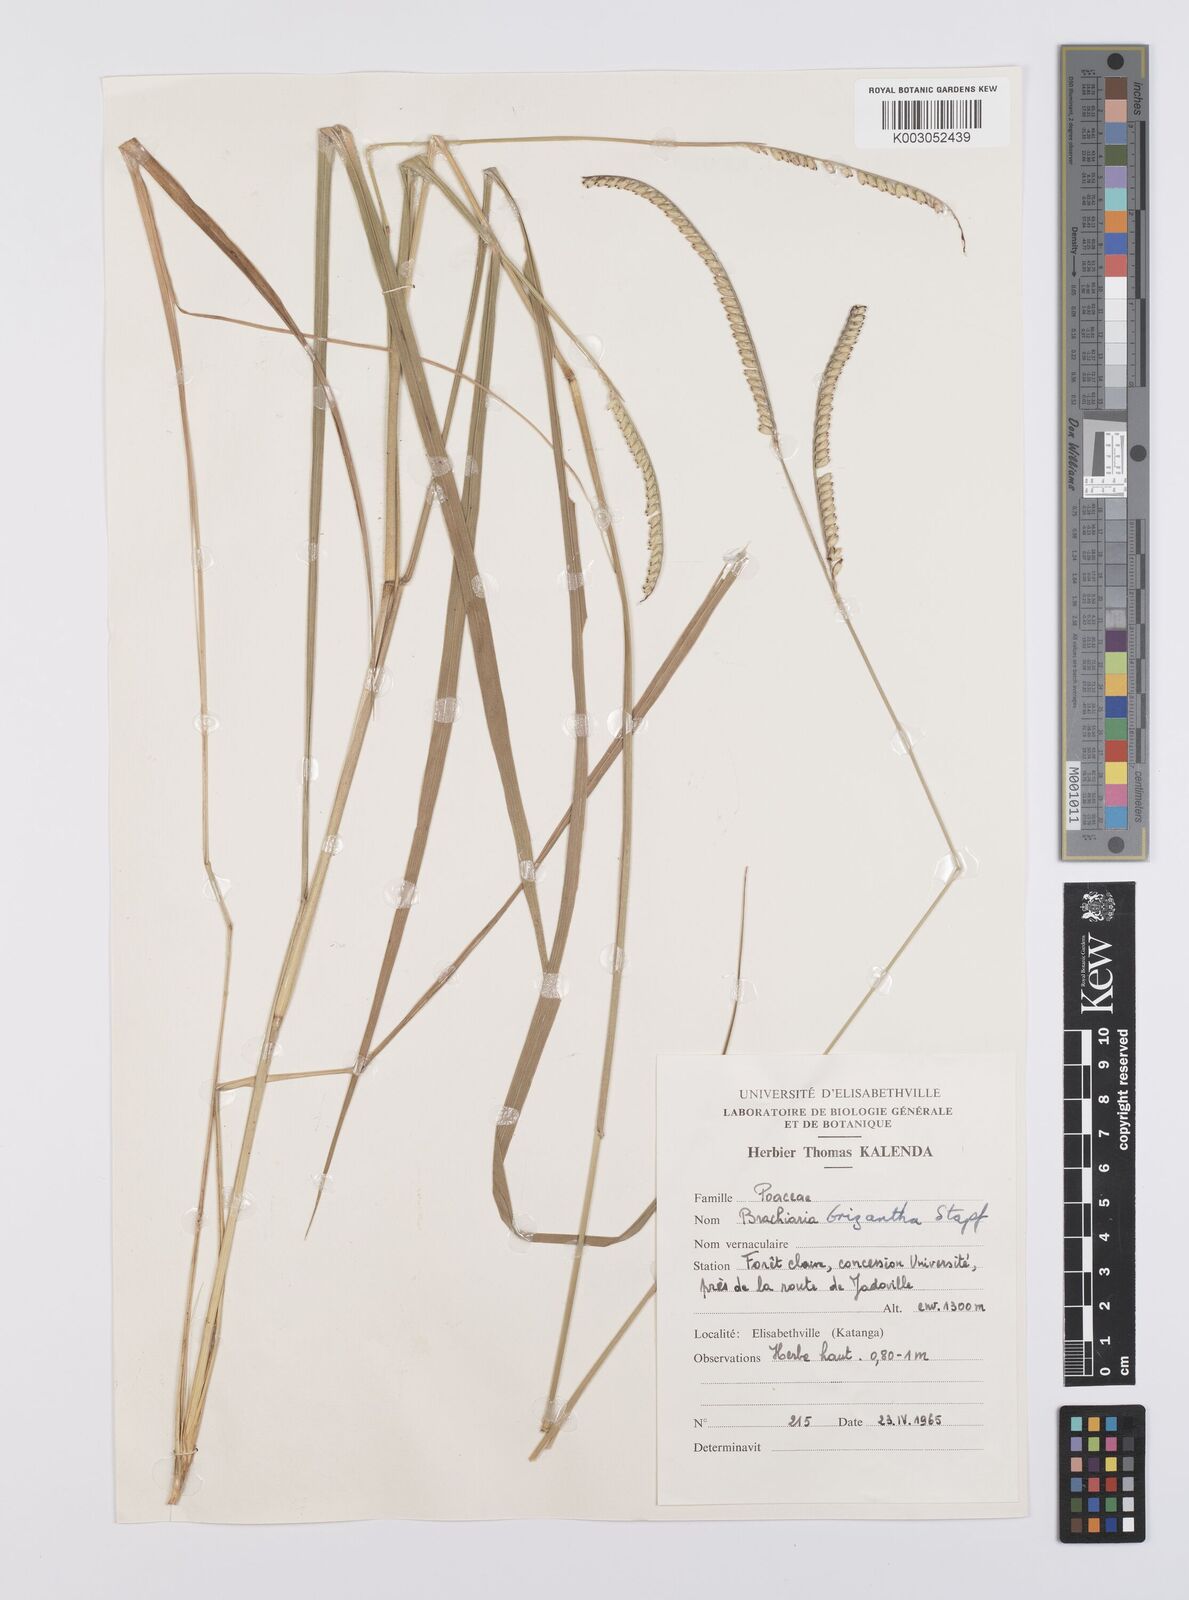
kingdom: Plantae
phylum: Tracheophyta
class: Liliopsida
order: Poales
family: Poaceae
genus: Urochloa
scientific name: Urochloa brizantha
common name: Palisade signalgrass
